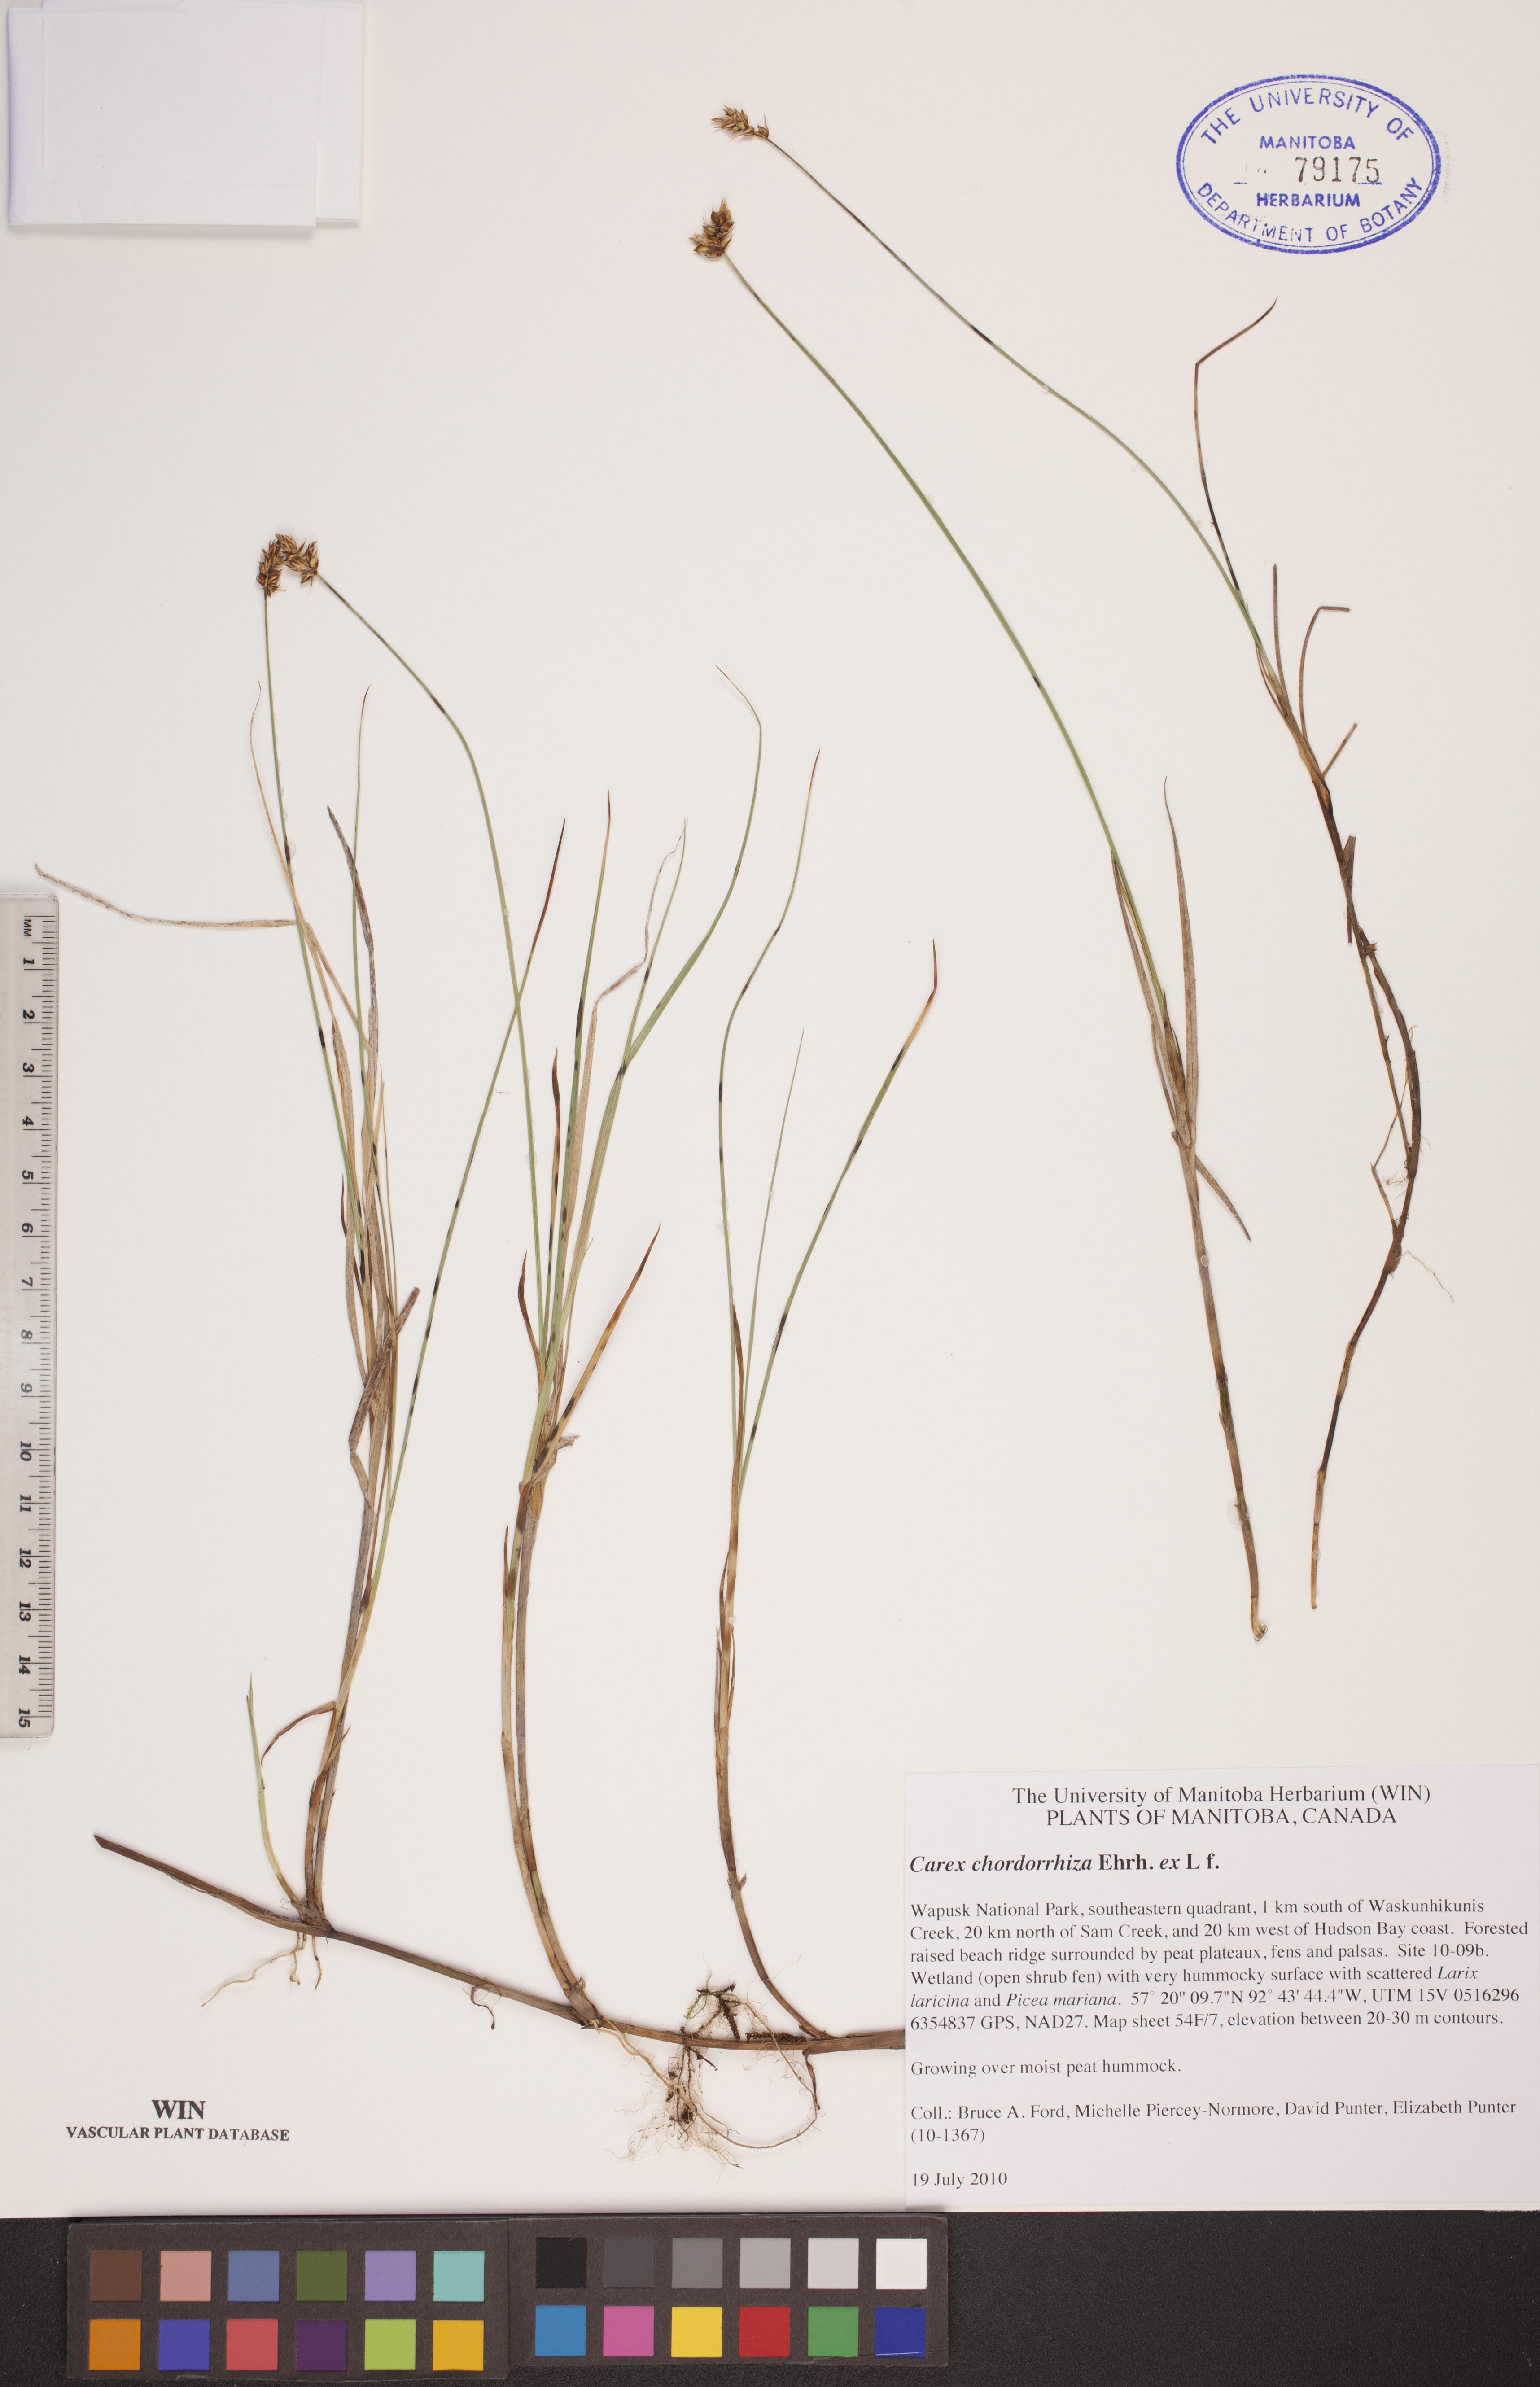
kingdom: Plantae
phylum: Tracheophyta
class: Liliopsida
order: Poales
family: Cyperaceae
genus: Carex
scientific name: Carex chordorrhiza
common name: String sedge
